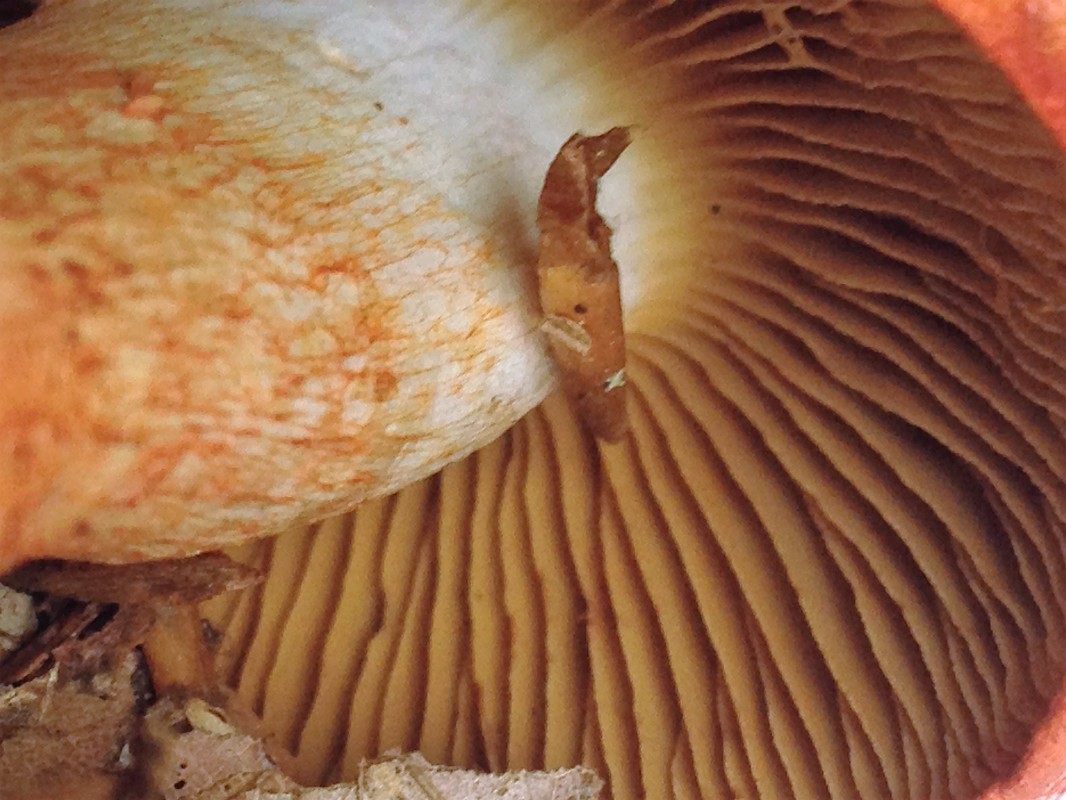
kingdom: Fungi
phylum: Basidiomycota
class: Agaricomycetes
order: Agaricales
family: Cortinariaceae
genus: Cortinarius
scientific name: Cortinarius bolaris
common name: cinnoberskællet slørhat
